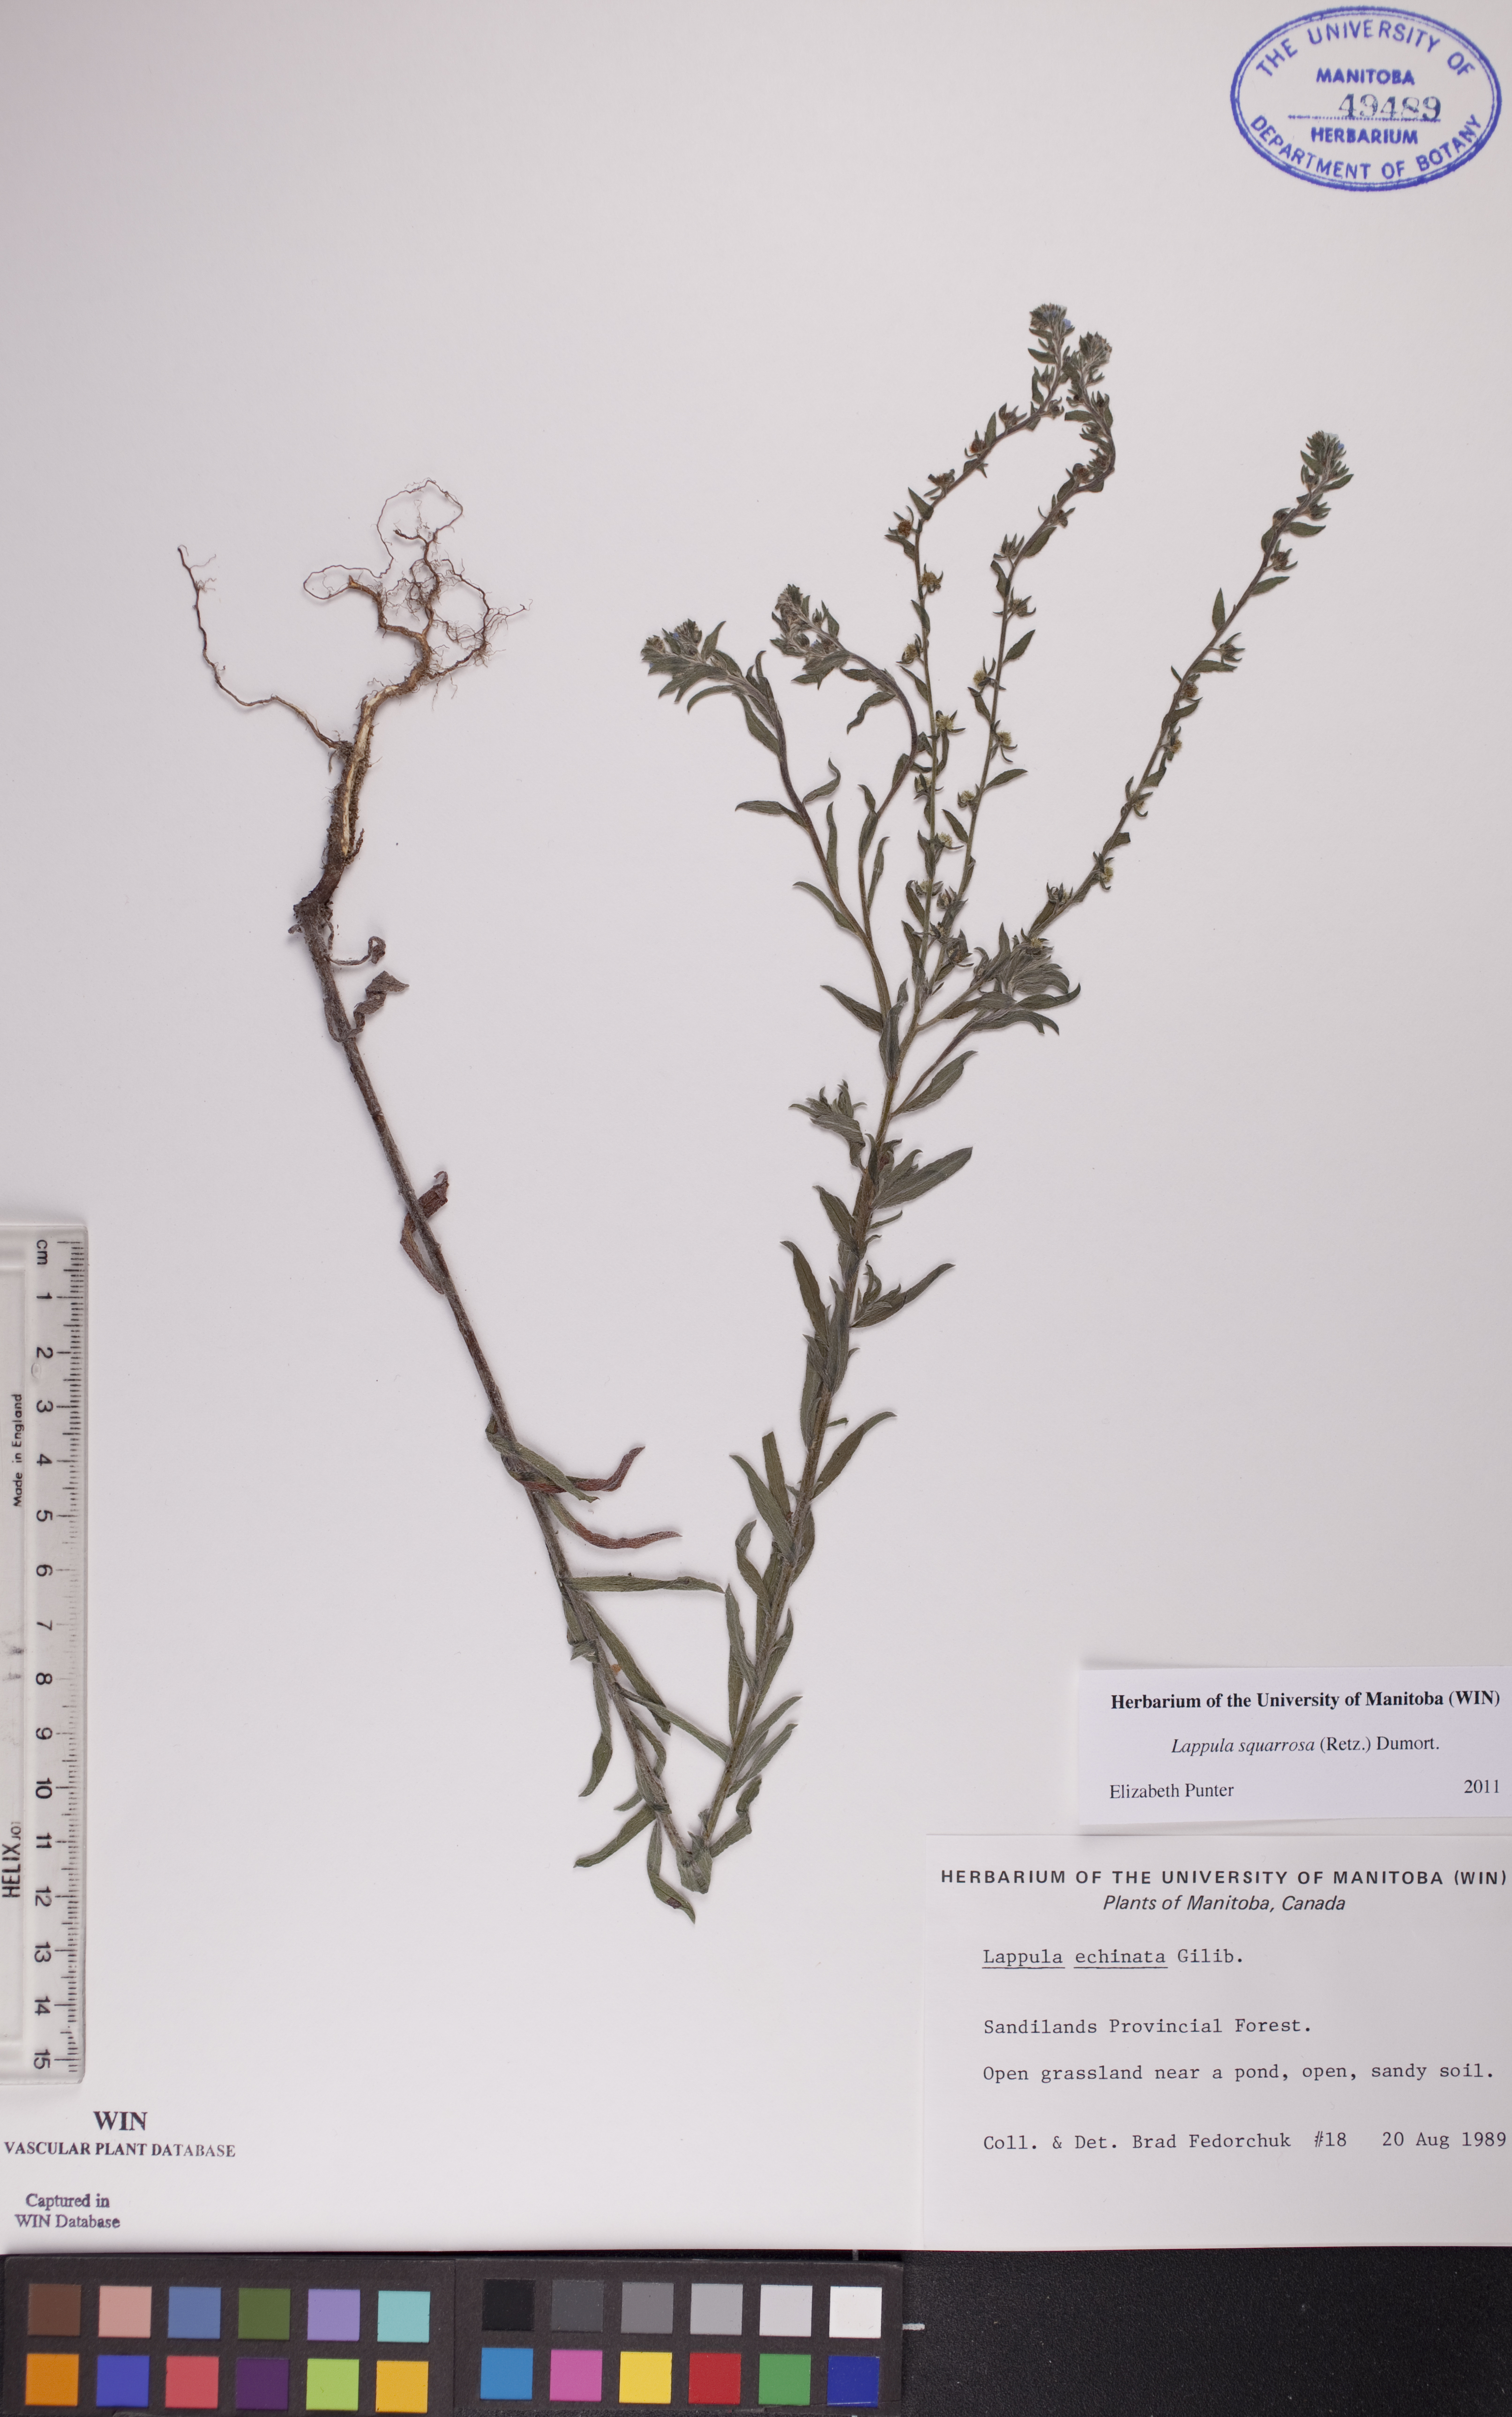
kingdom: Plantae
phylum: Tracheophyta
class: Magnoliopsida
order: Boraginales
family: Boraginaceae
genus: Lappula
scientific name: Lappula squarrosa
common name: European stickseed
